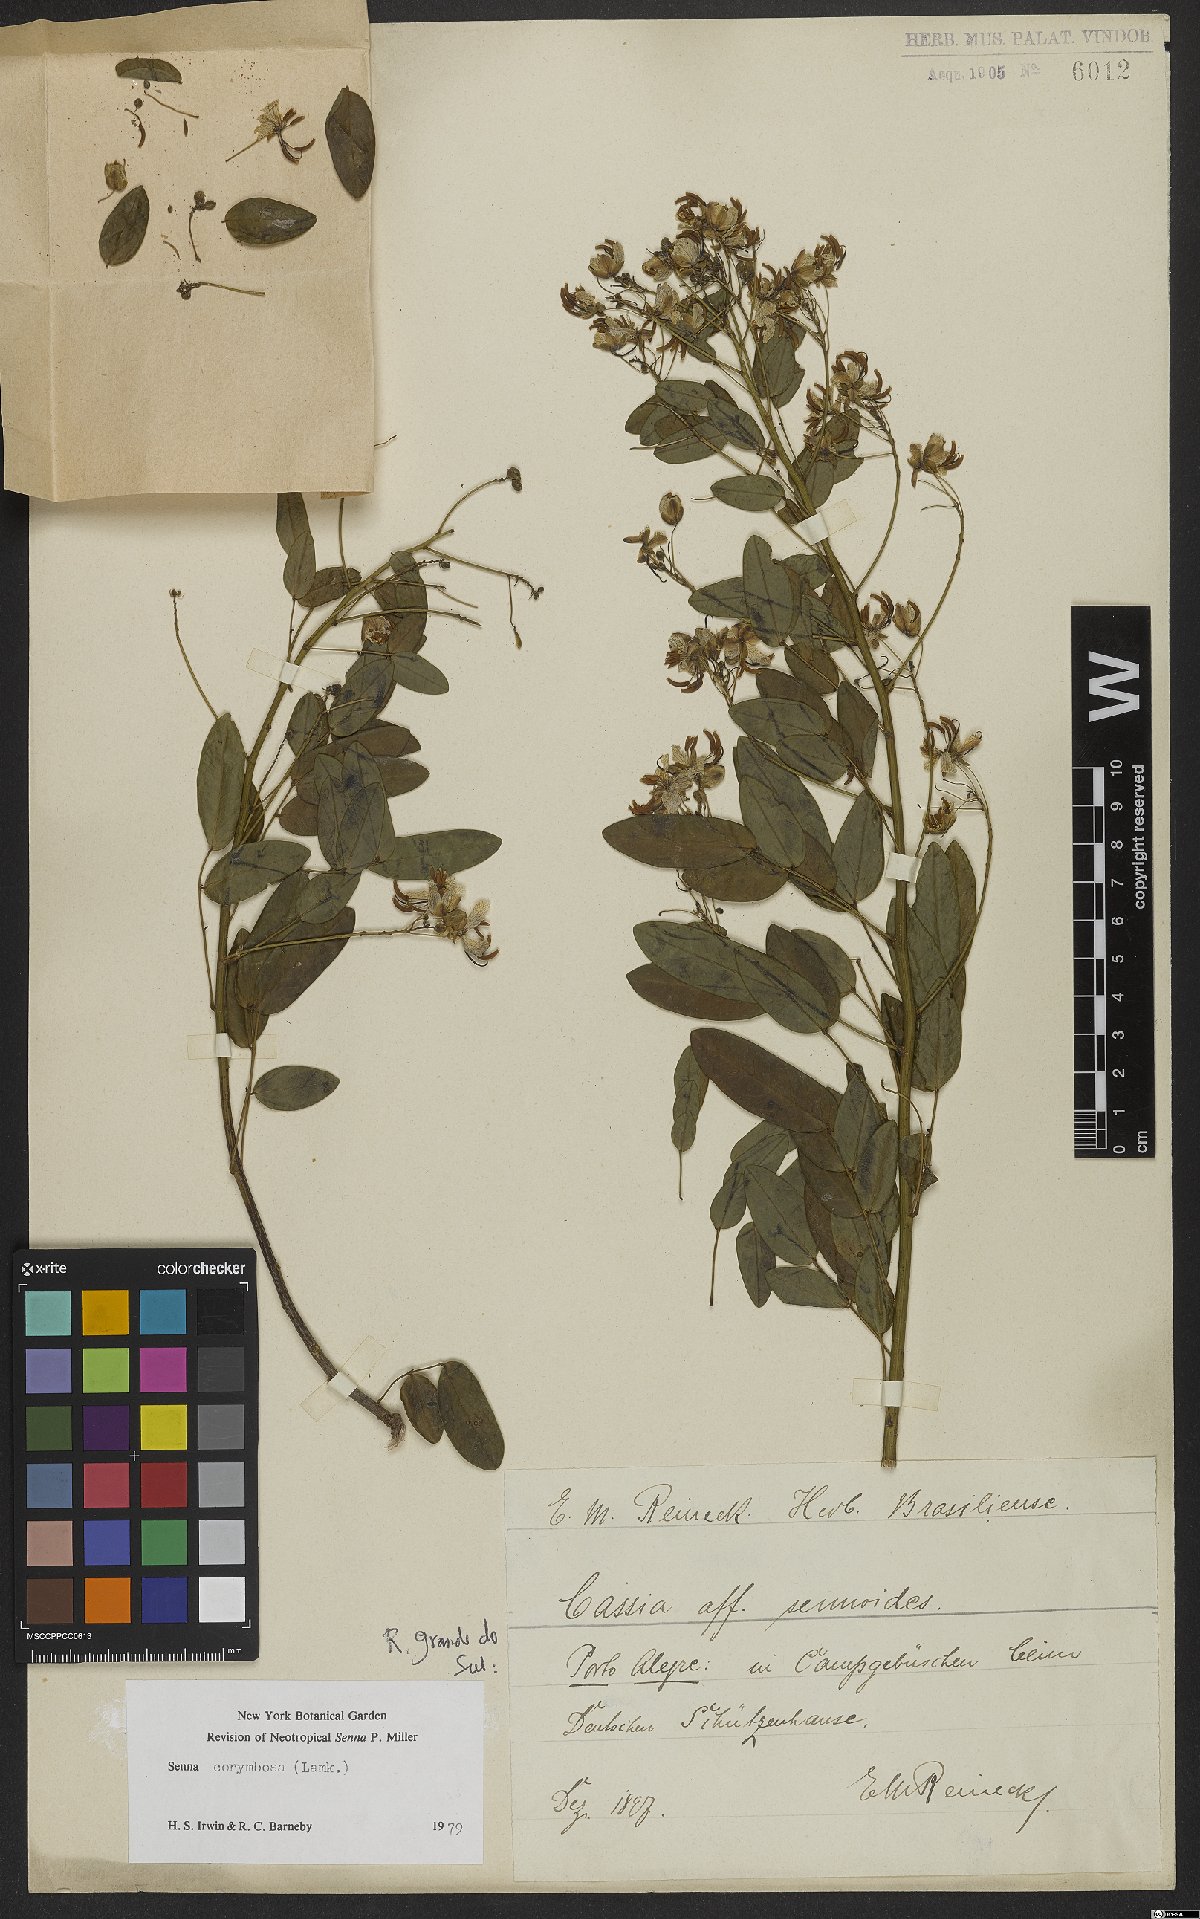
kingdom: Plantae
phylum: Tracheophyta
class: Magnoliopsida
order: Fabales
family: Fabaceae
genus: Senna
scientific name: Senna corymbosa
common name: Argentine senna
